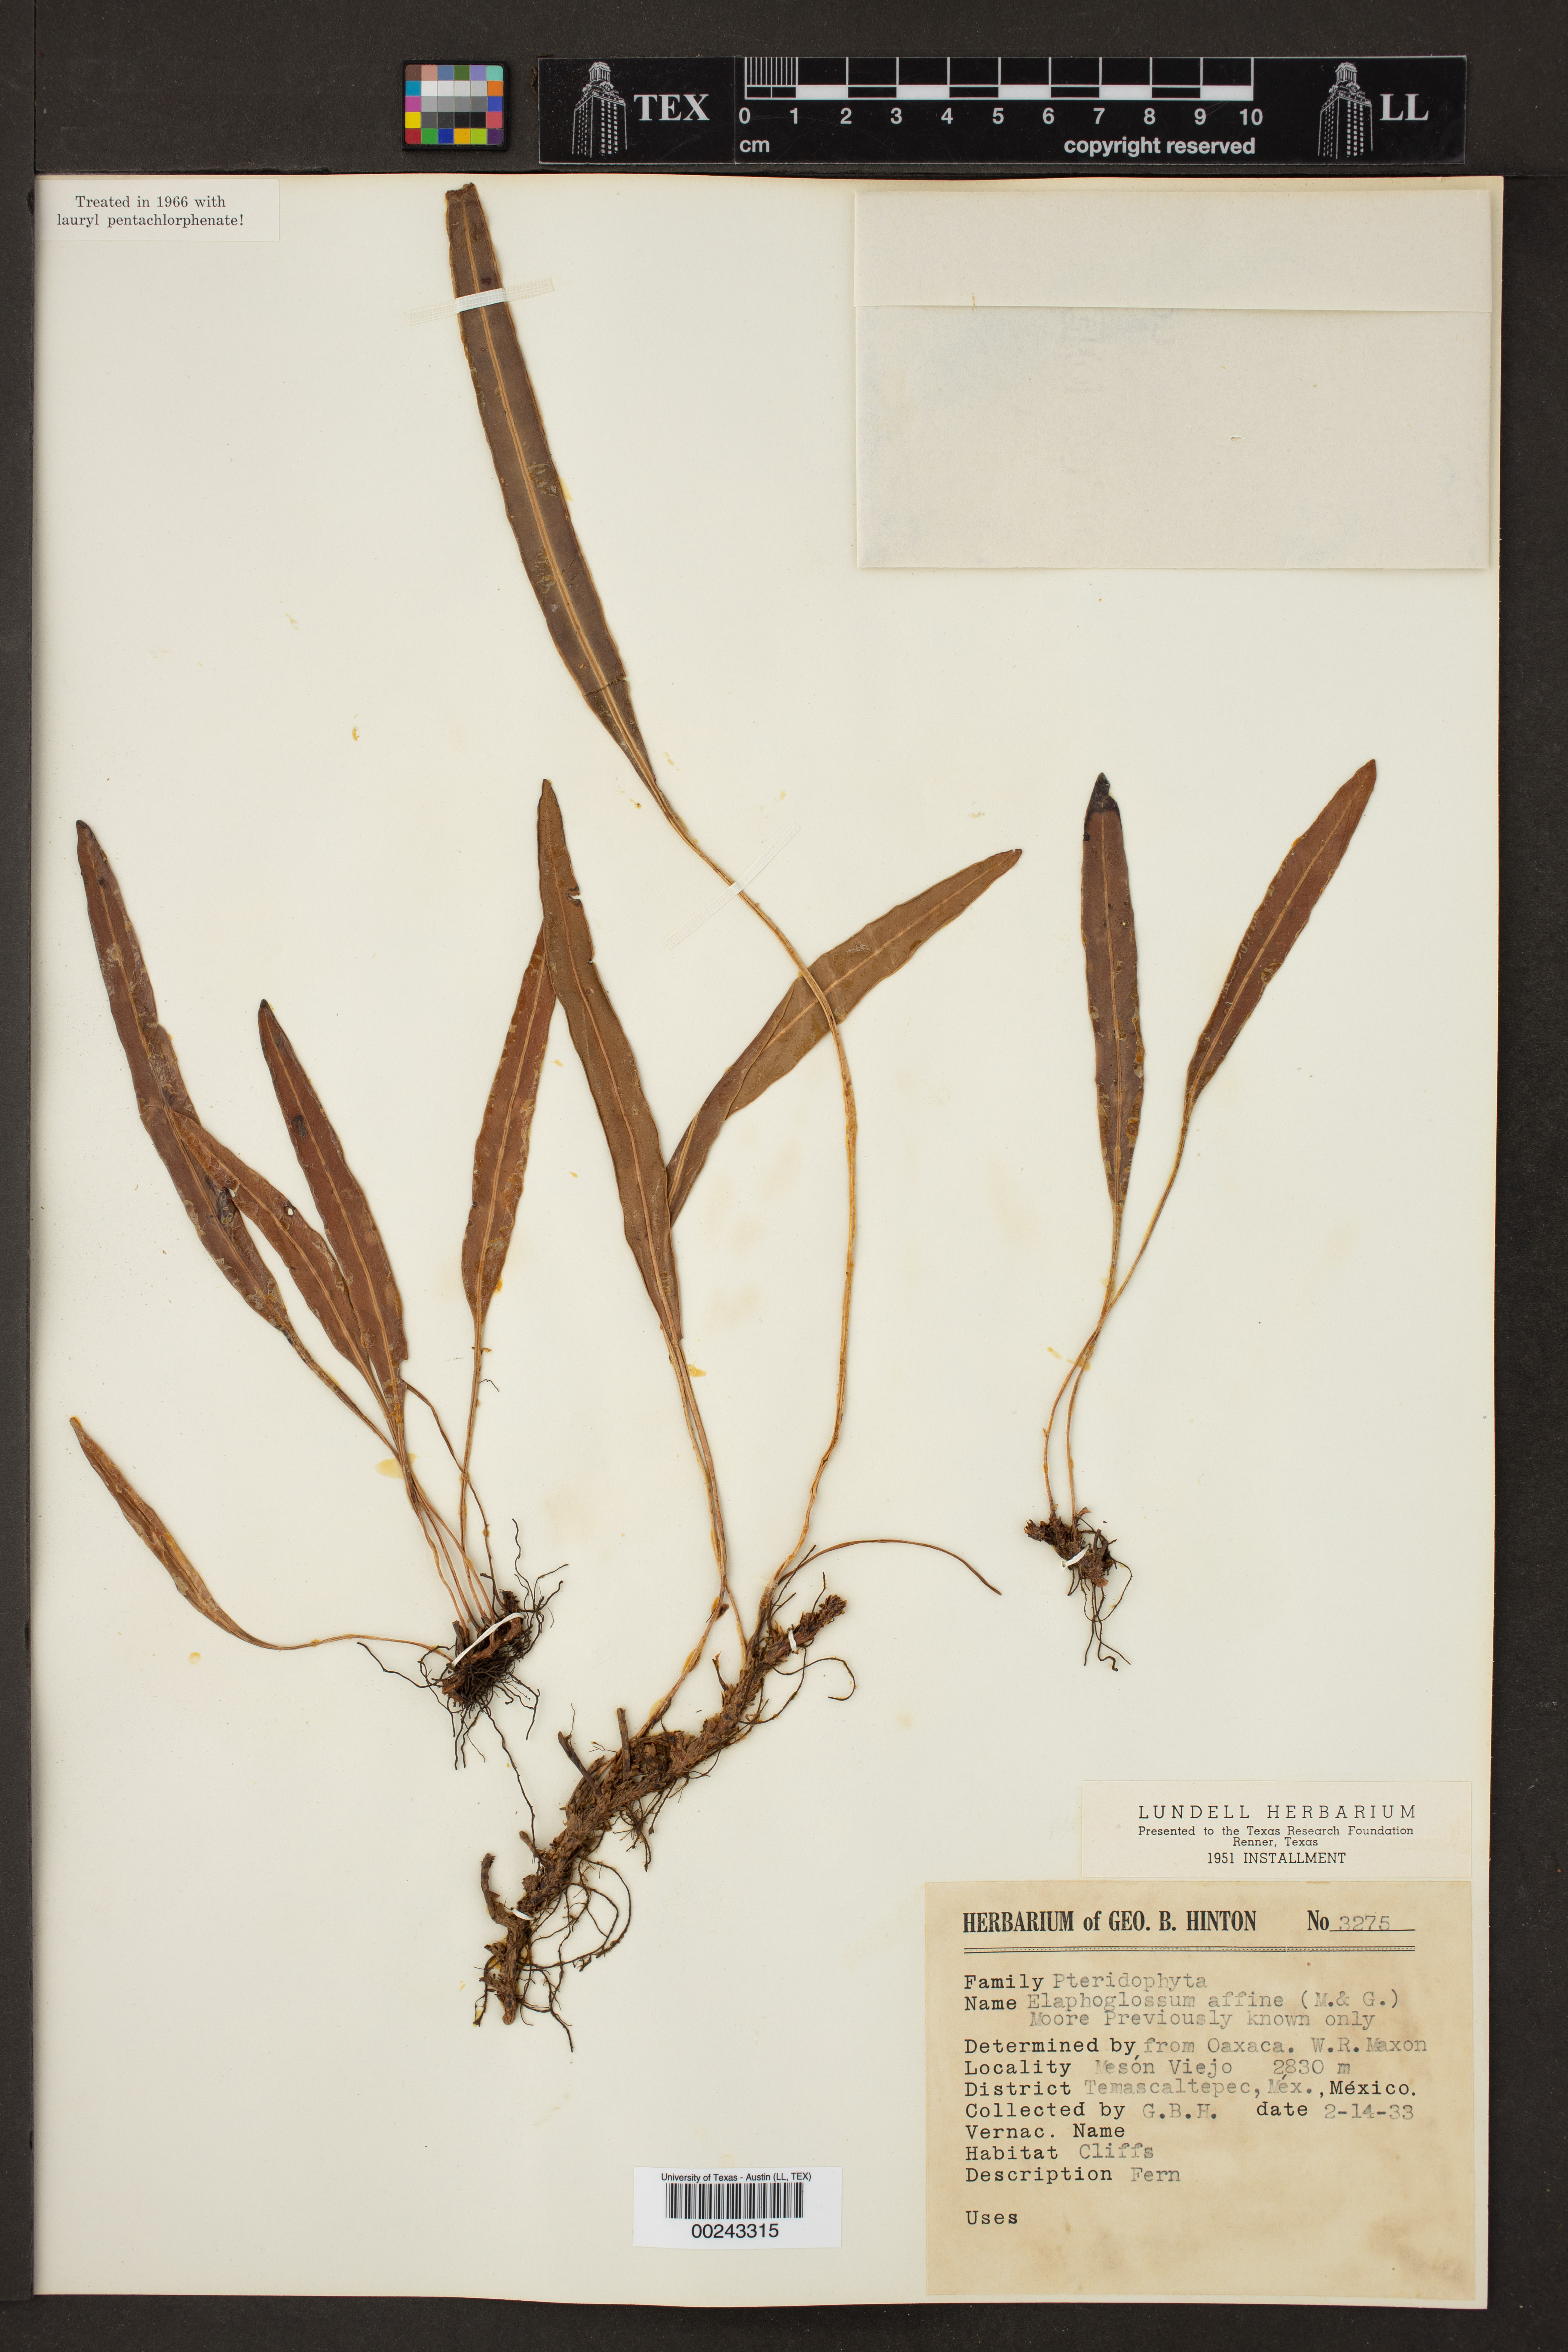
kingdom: Plantae
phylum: Tracheophyta
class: Polypodiopsida
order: Polypodiales
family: Dryopteridaceae
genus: Elaphoglossum
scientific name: Elaphoglossum affine
